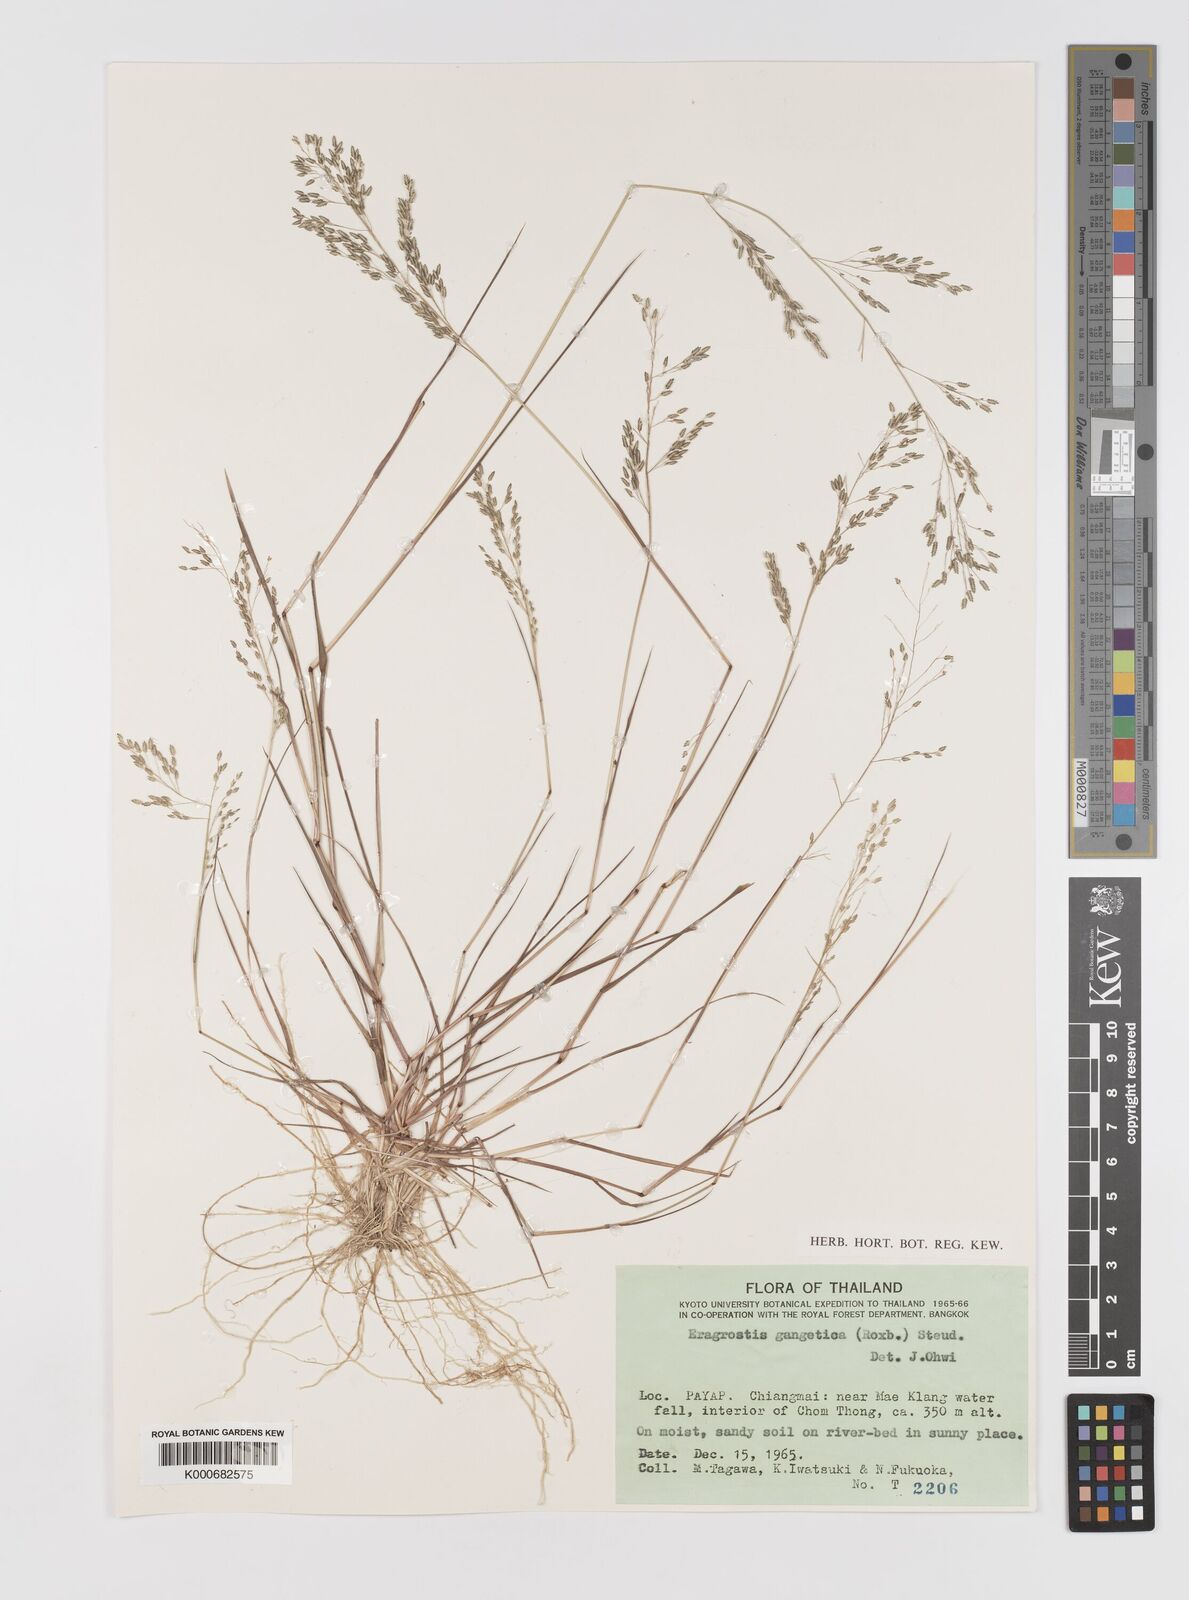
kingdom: Plantae
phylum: Tracheophyta
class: Liliopsida
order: Poales
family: Poaceae
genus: Eragrostis
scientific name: Eragrostis
